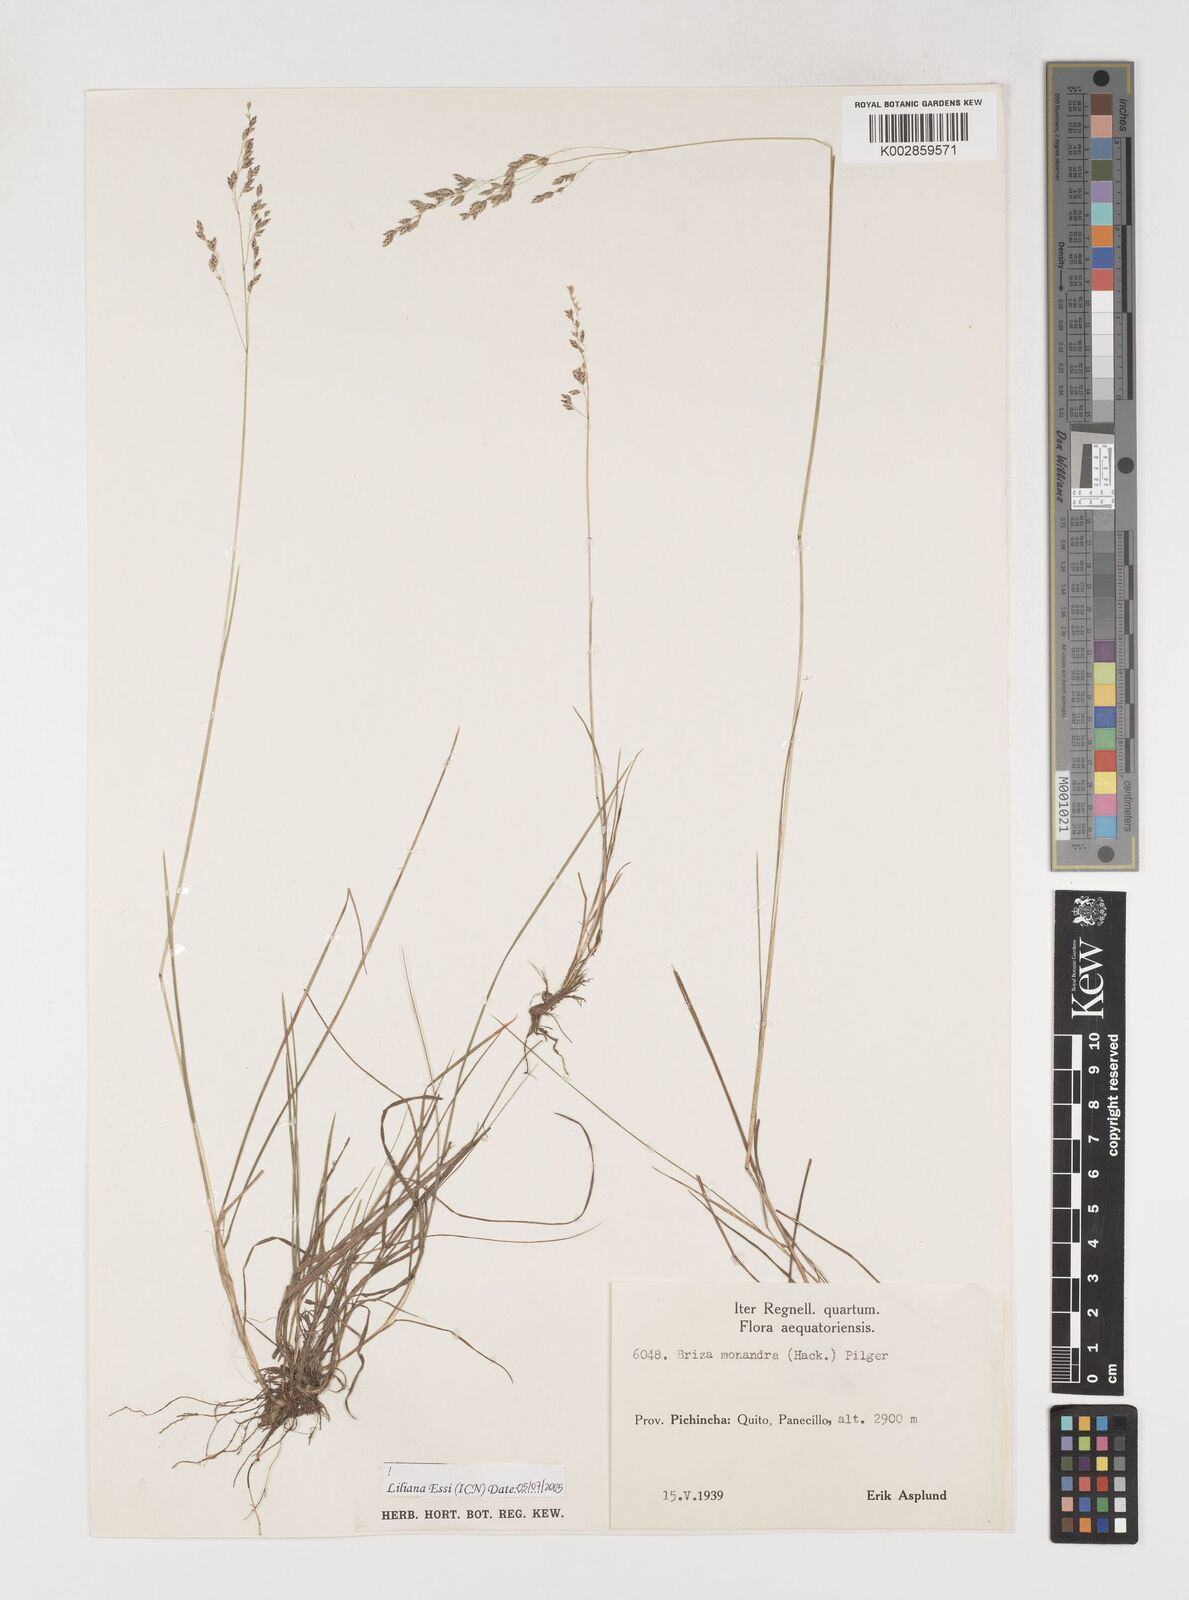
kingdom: Plantae
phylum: Tracheophyta
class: Liliopsida
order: Poales
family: Poaceae
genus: Poidium
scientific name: Poidium monandrum
